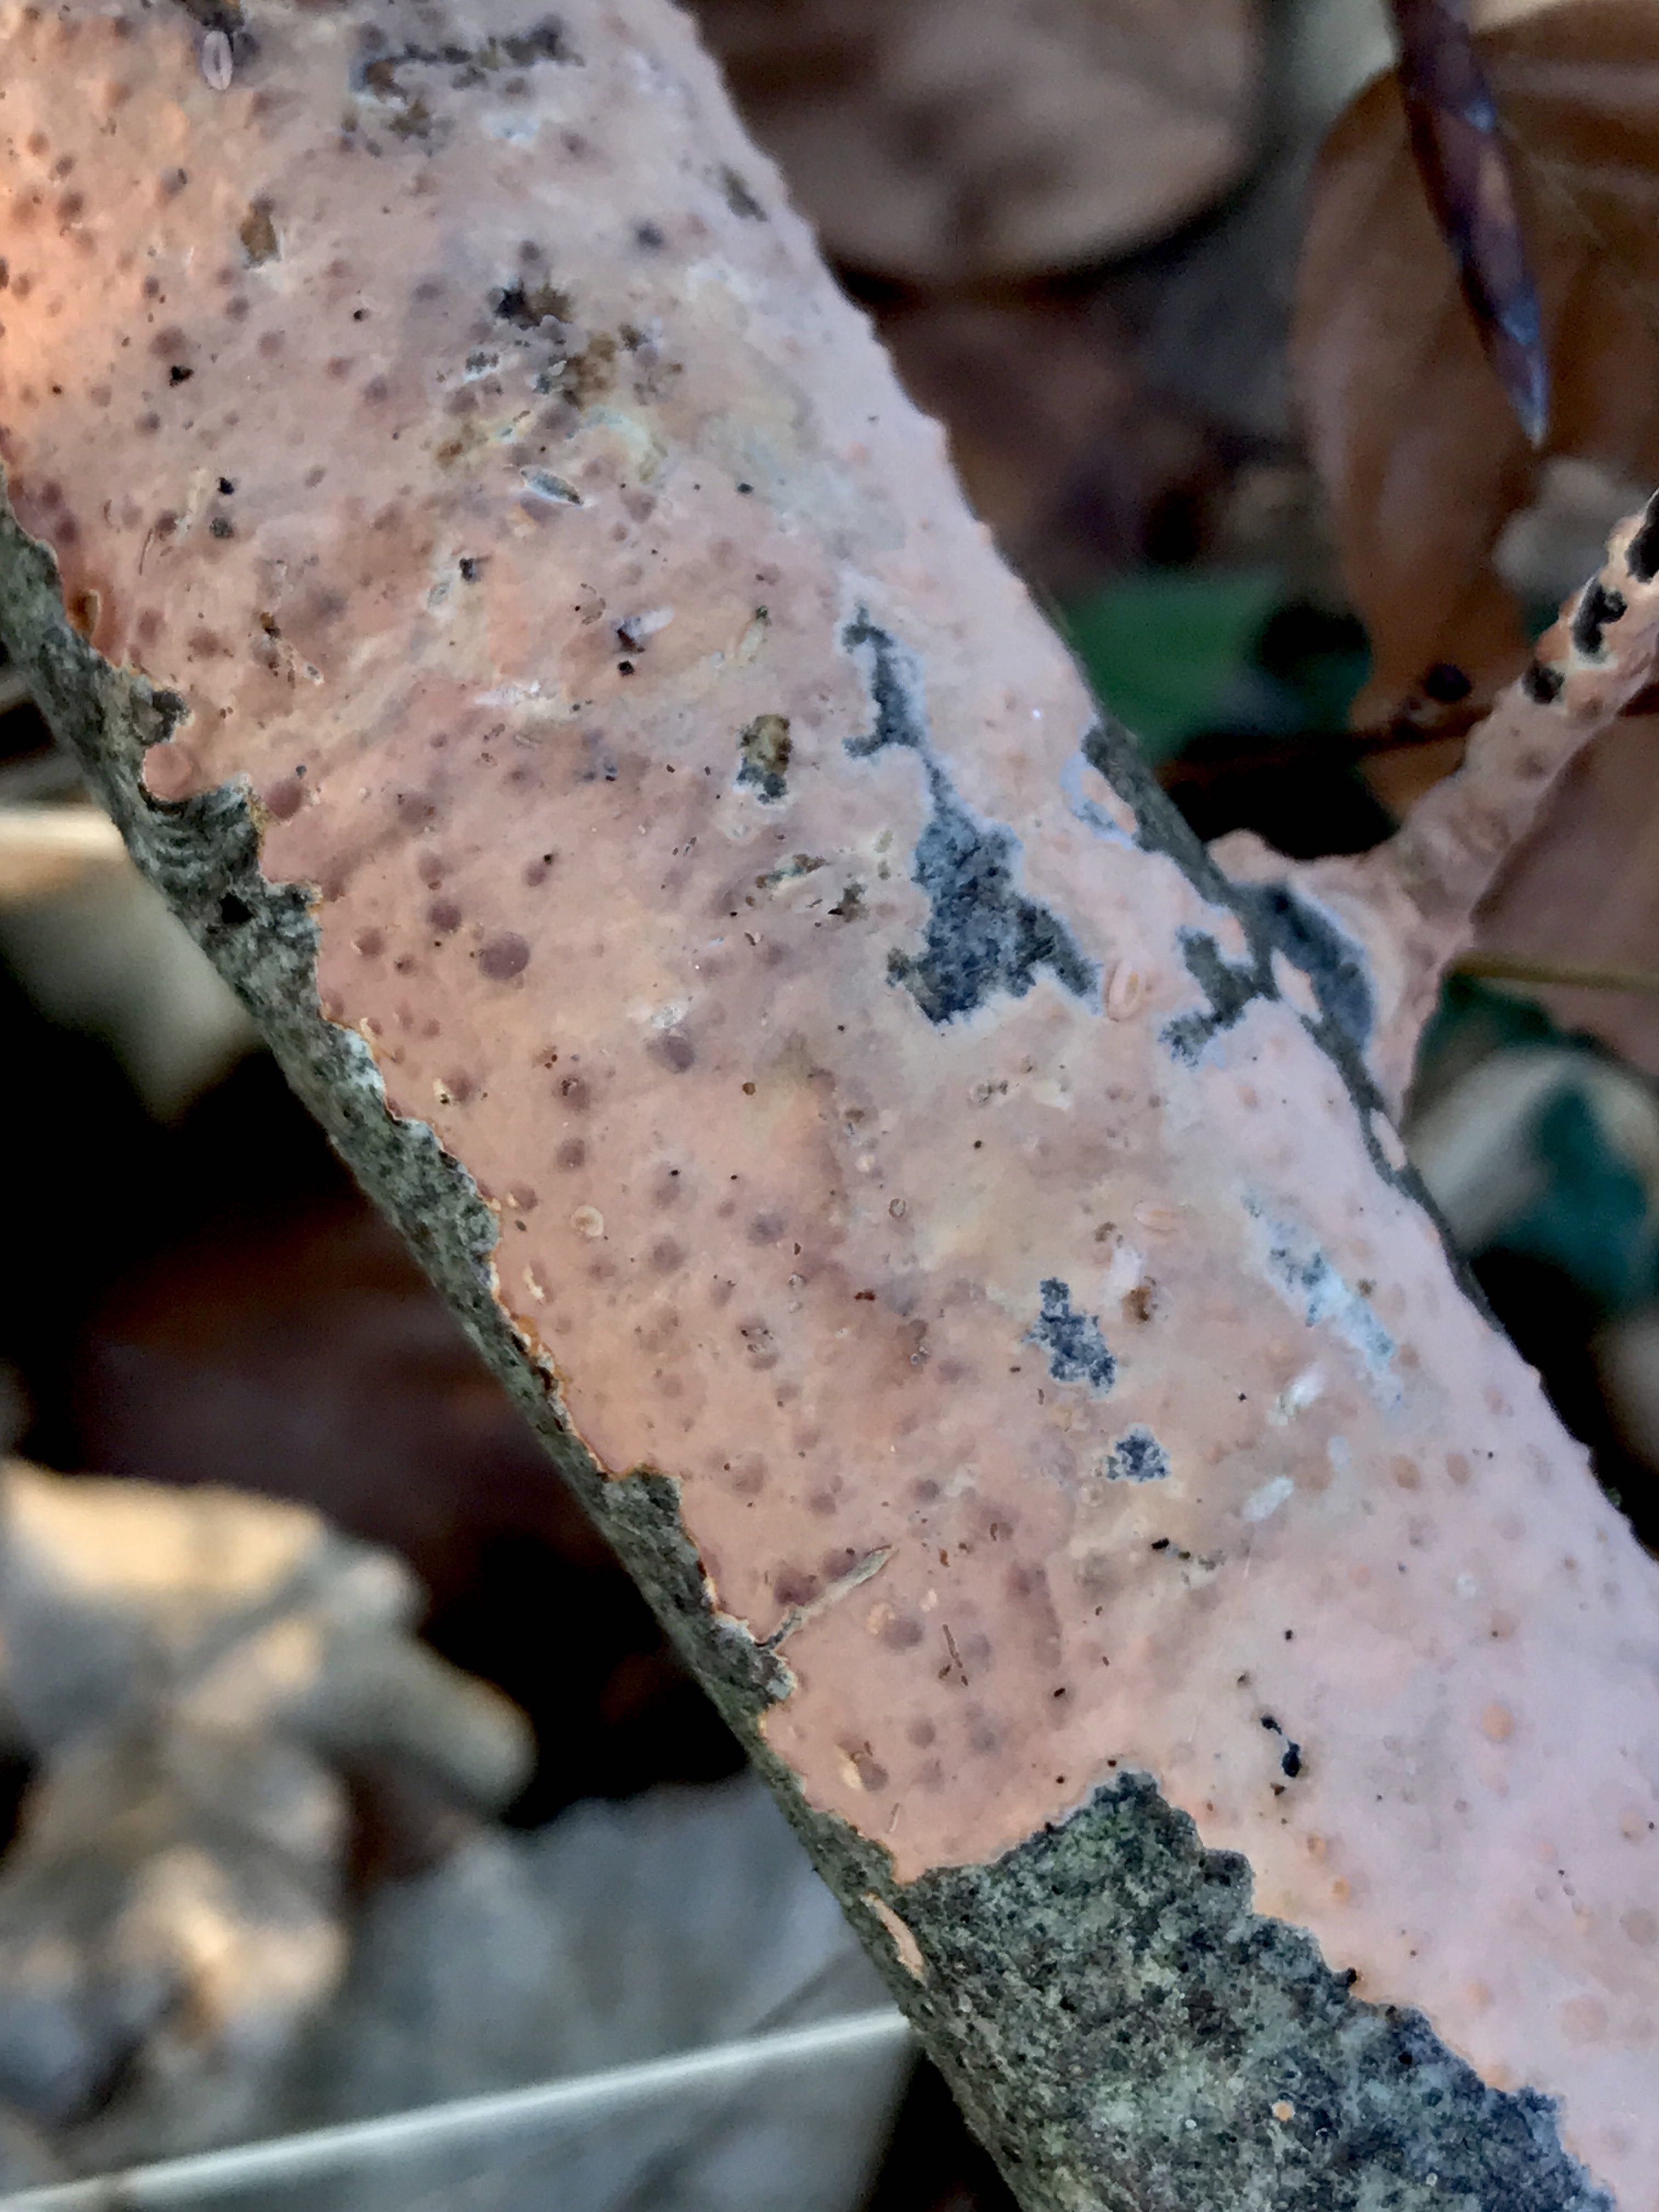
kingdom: Fungi
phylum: Basidiomycota
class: Agaricomycetes
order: Russulales
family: Peniophoraceae
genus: Peniophora
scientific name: Peniophora incarnata
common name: laksefarvet voksskind
